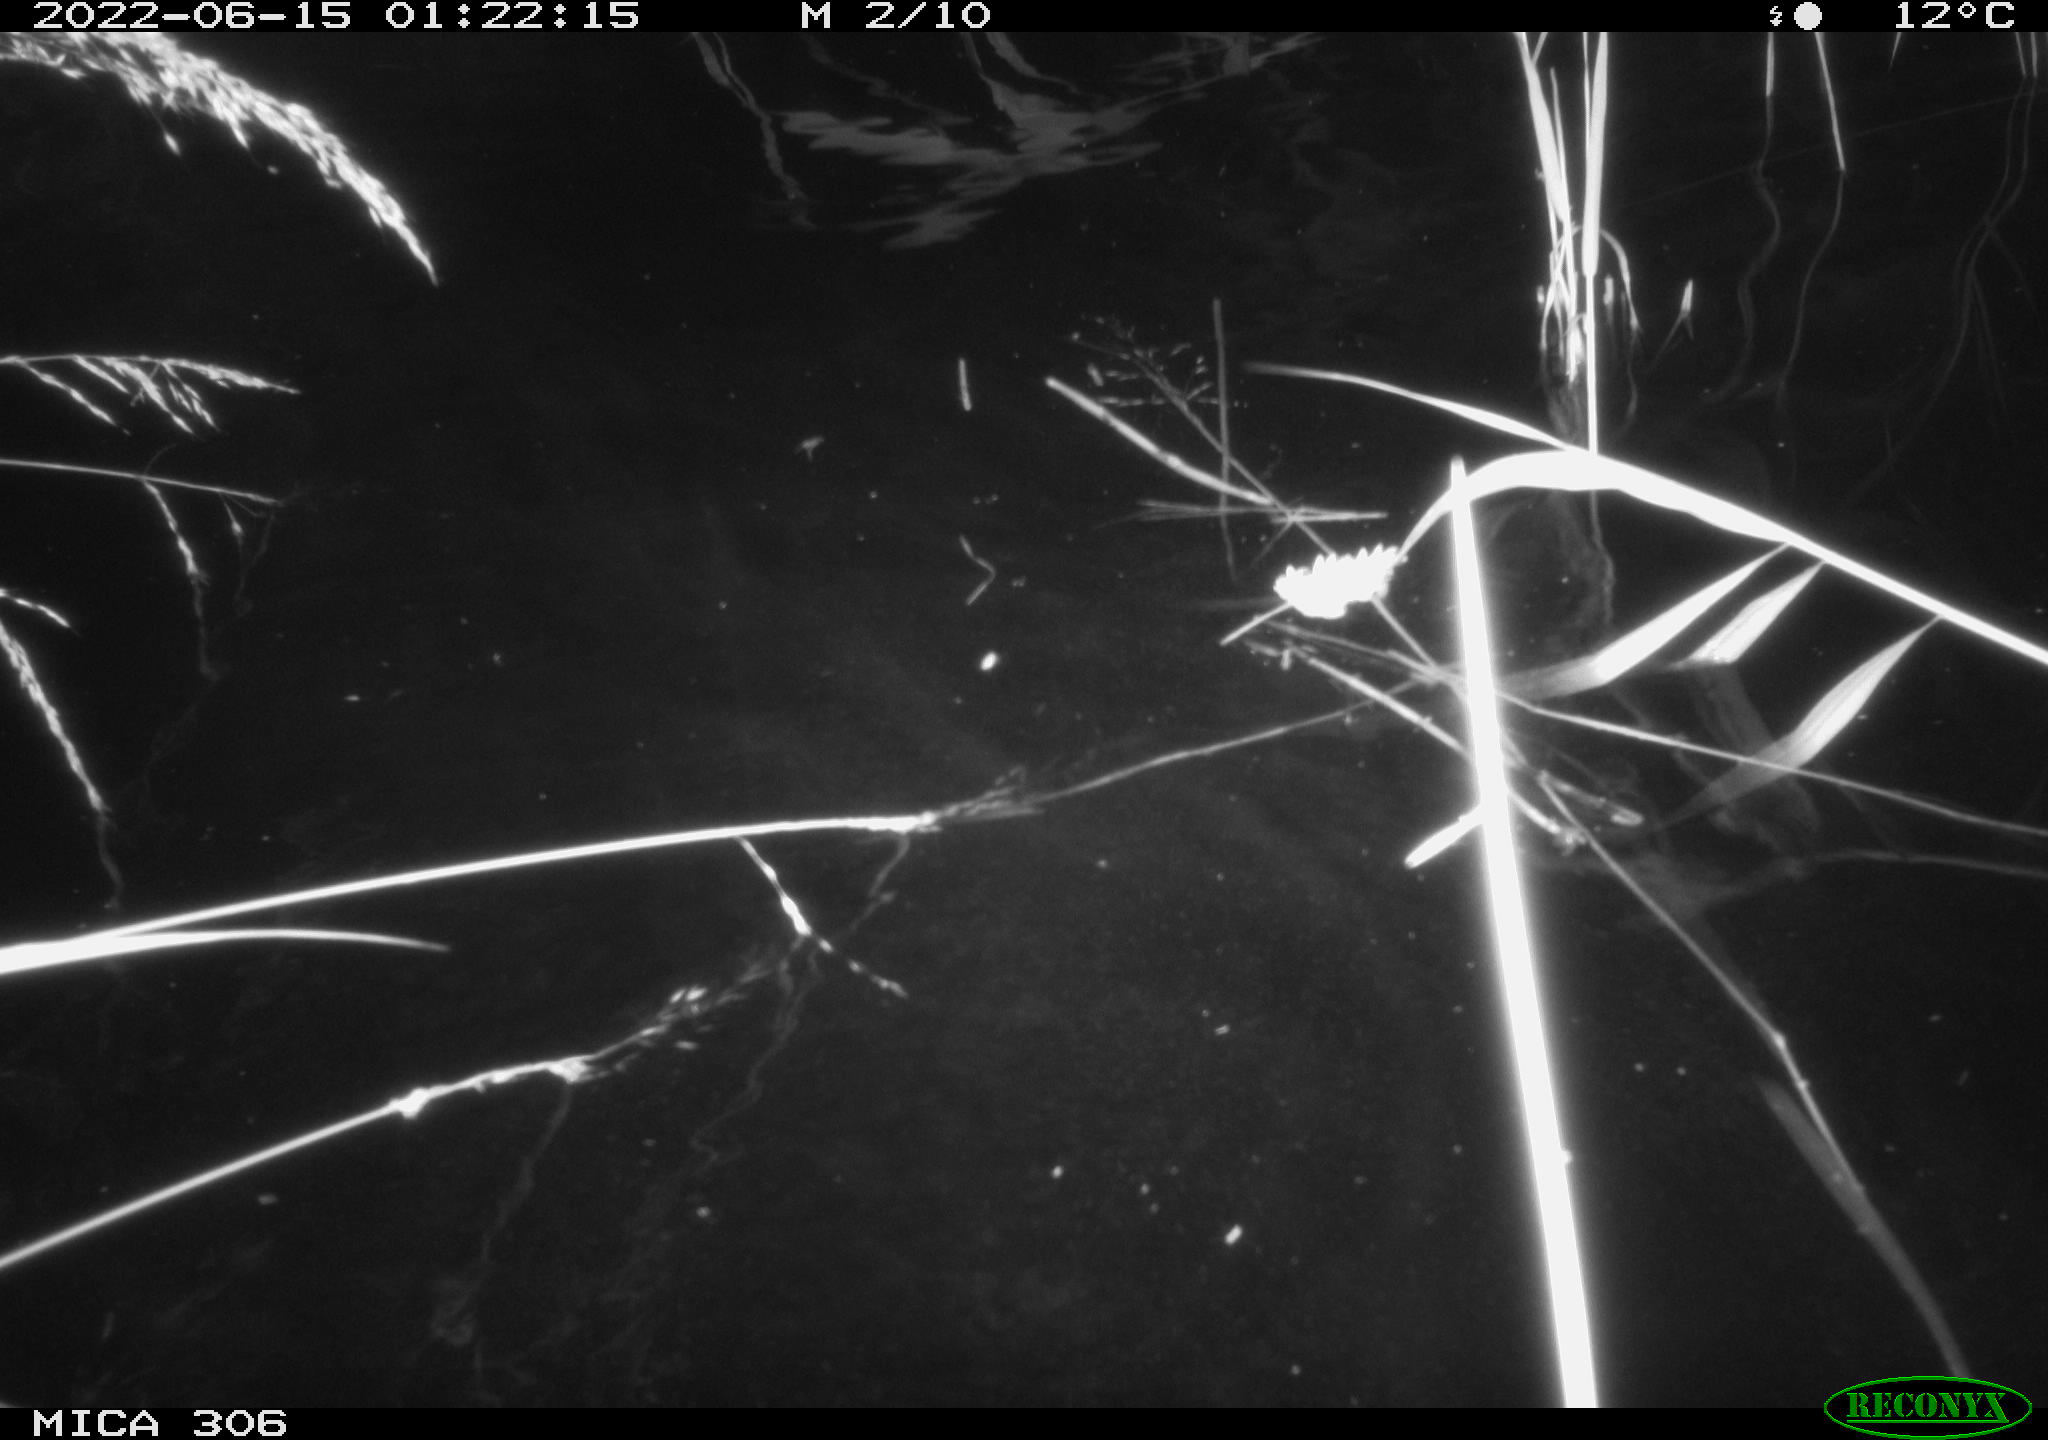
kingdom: Animalia
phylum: Chordata
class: Mammalia
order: Rodentia
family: Cricetidae
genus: Ondatra
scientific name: Ondatra zibethicus
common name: Muskrat
